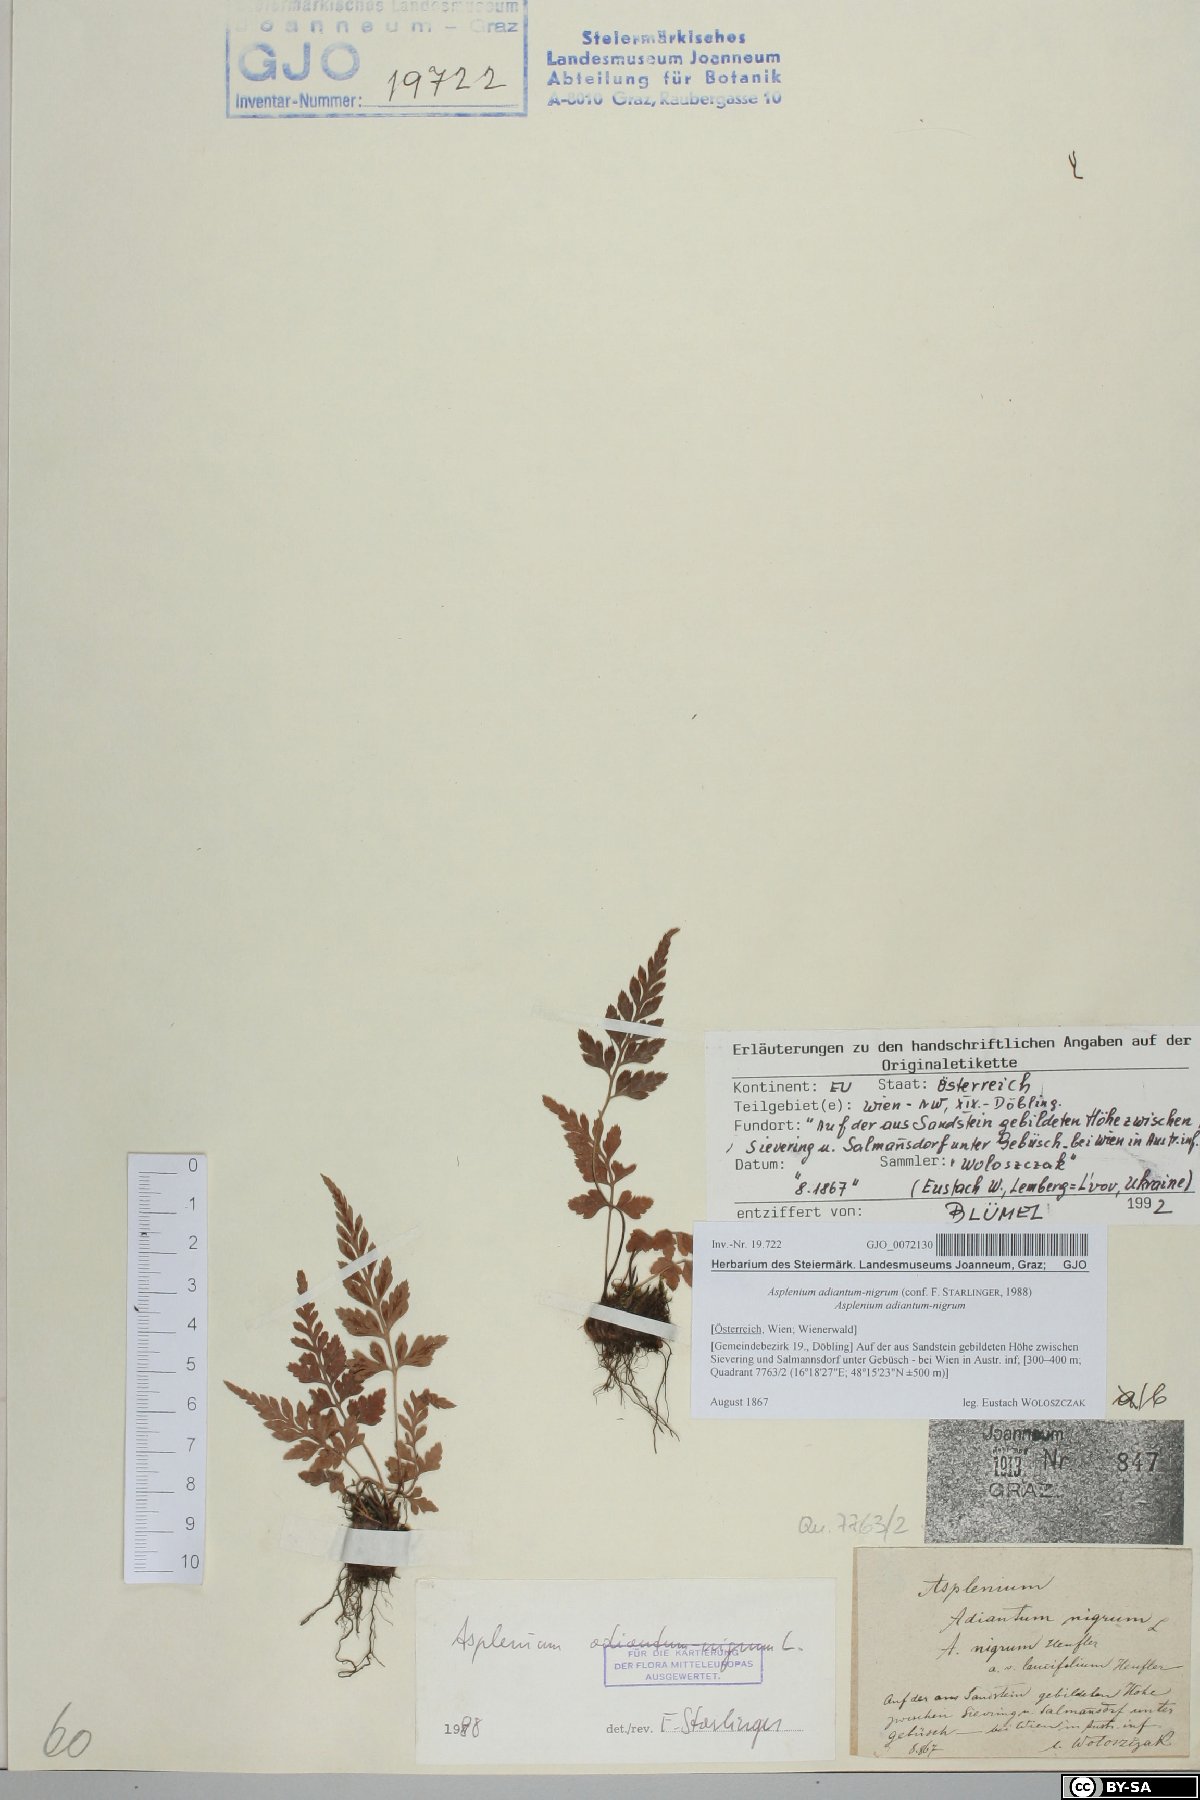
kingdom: Plantae
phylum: Tracheophyta
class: Polypodiopsida
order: Polypodiales
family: Aspleniaceae
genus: Asplenium
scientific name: Asplenium adiantum-nigrum
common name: Black spleenwort
